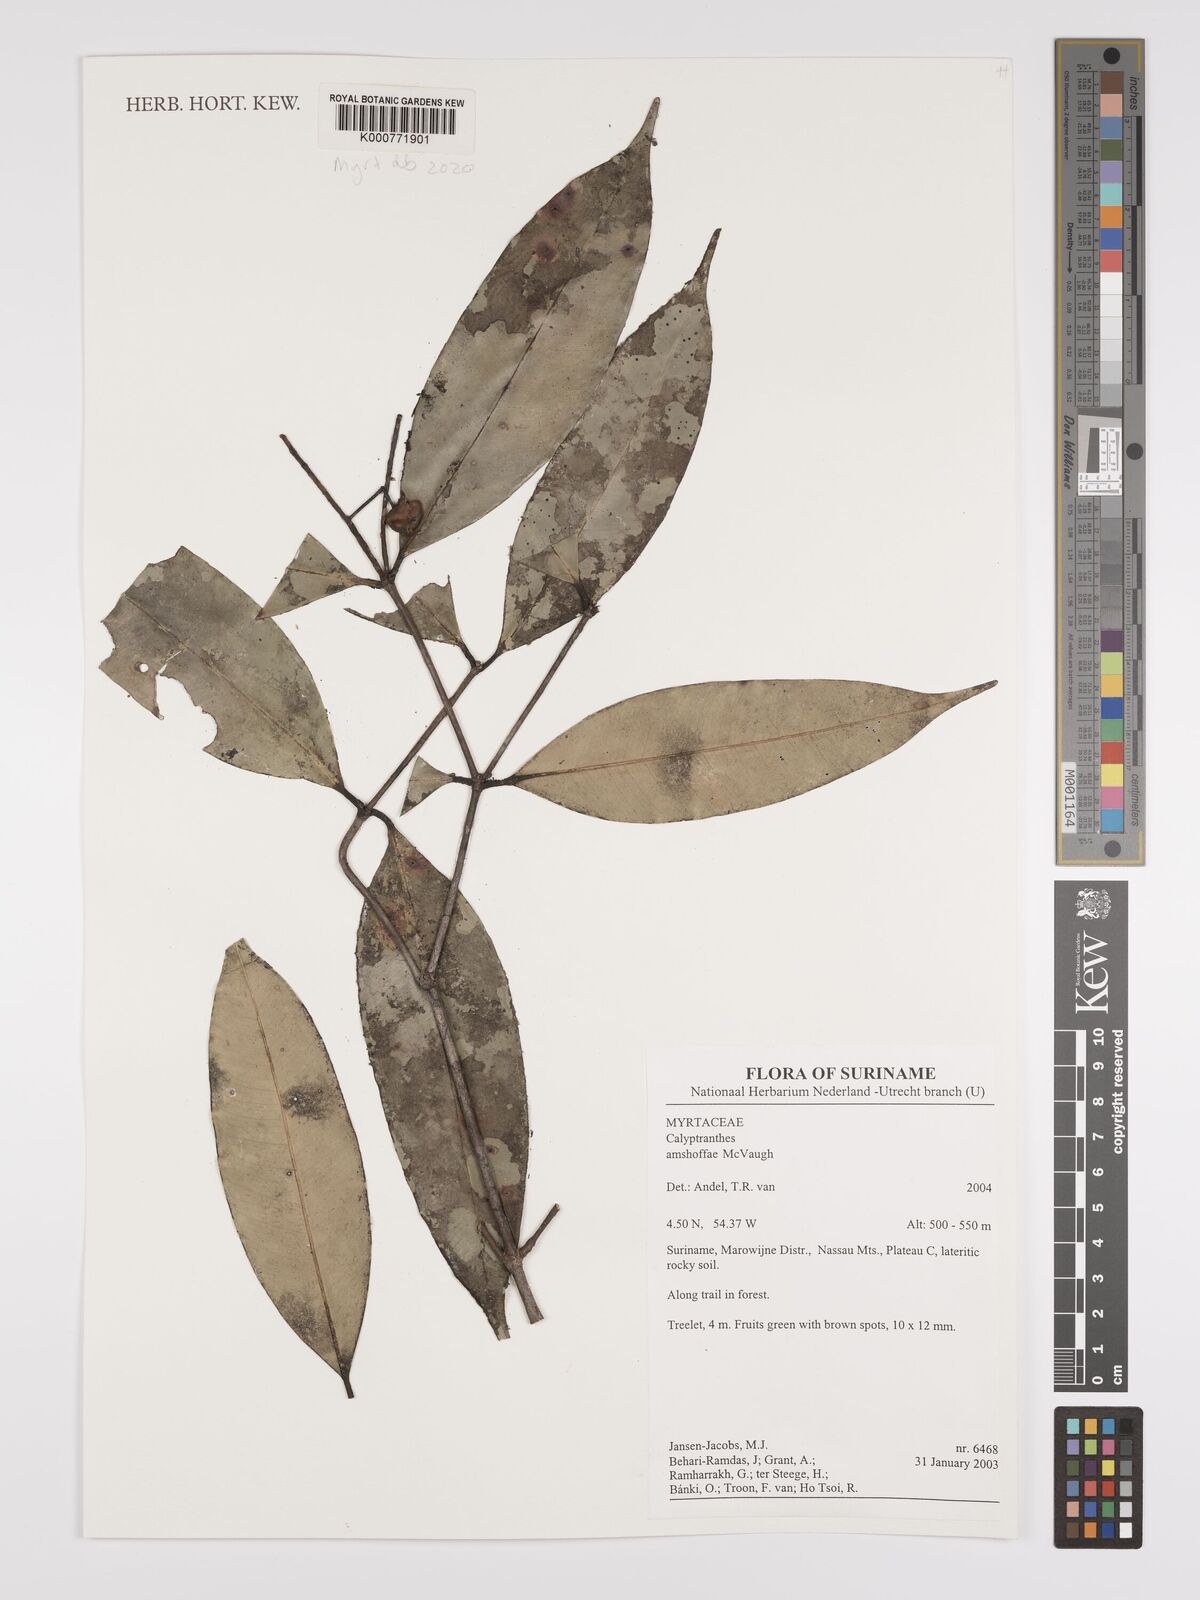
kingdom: Plantae
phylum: Tracheophyta
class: Magnoliopsida
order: Myrtales
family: Myrtaceae
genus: Myrcia
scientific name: Myrcia fasciculata
